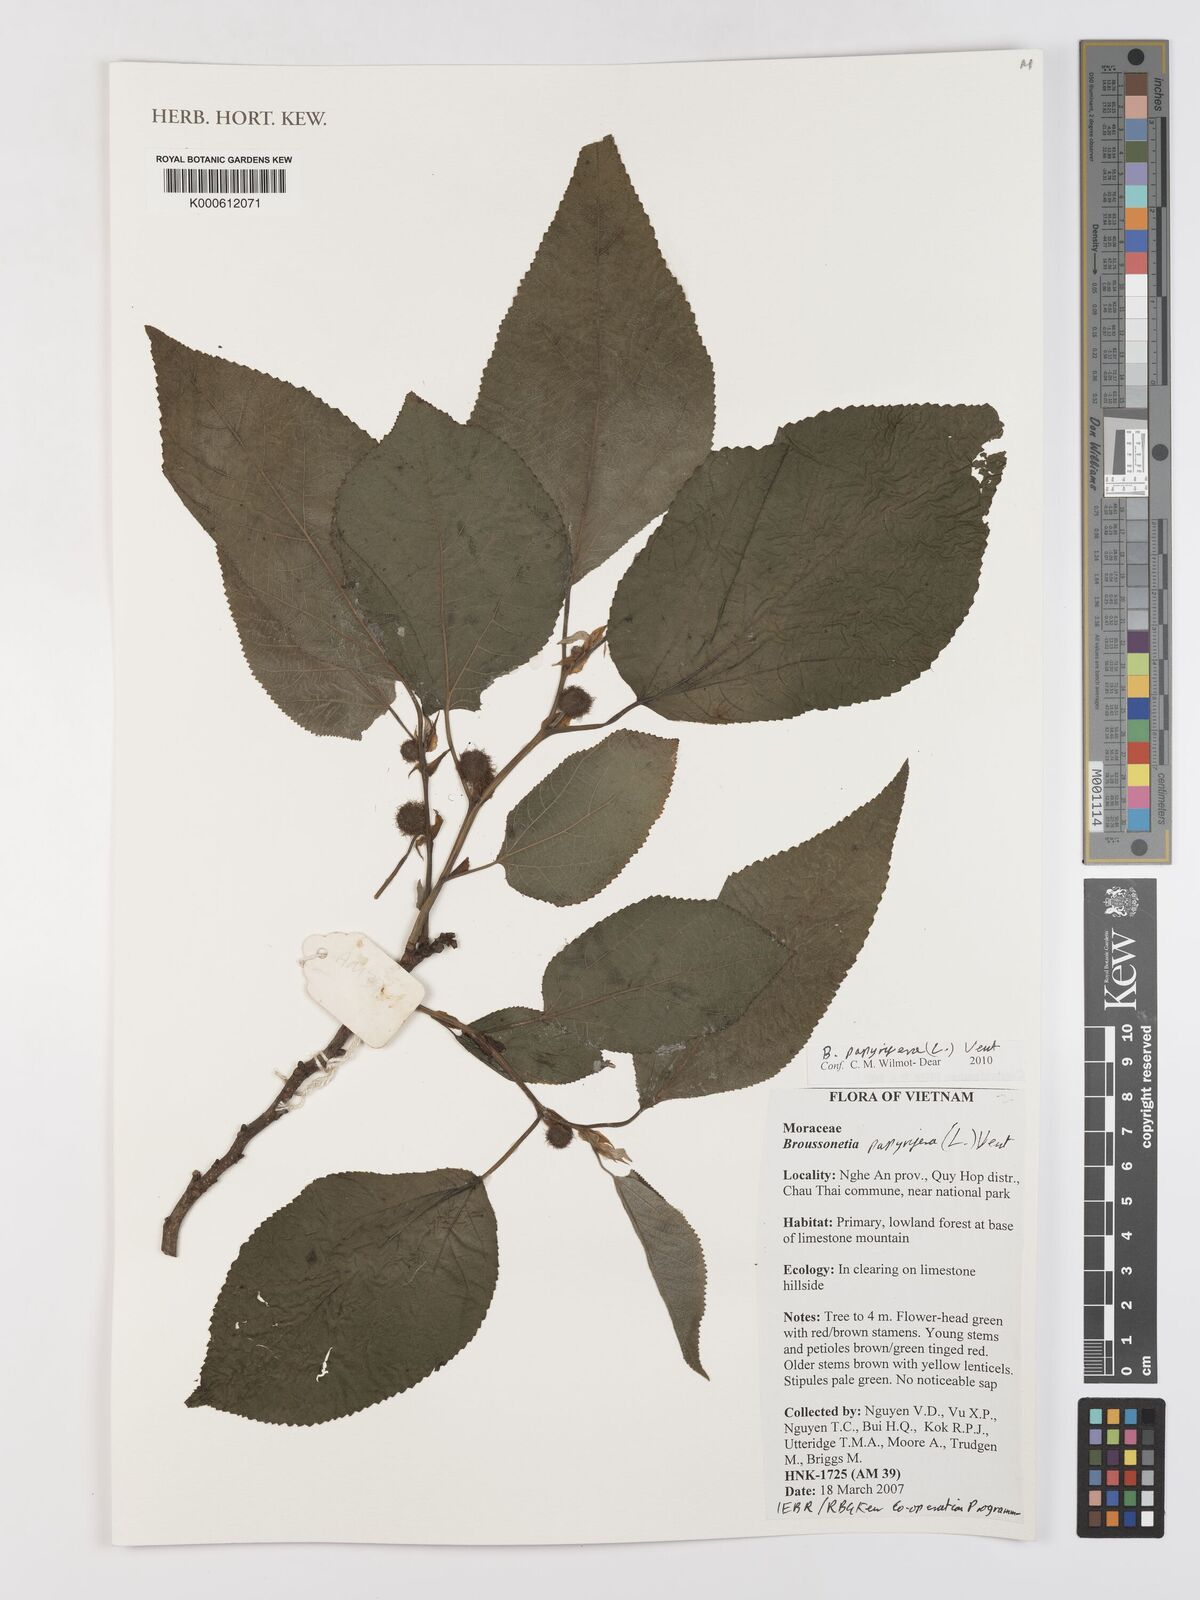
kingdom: Plantae
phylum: Tracheophyta
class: Magnoliopsida
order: Rosales
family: Moraceae
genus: Broussonetia
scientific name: Broussonetia papyrifera
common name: Paper mulberry
